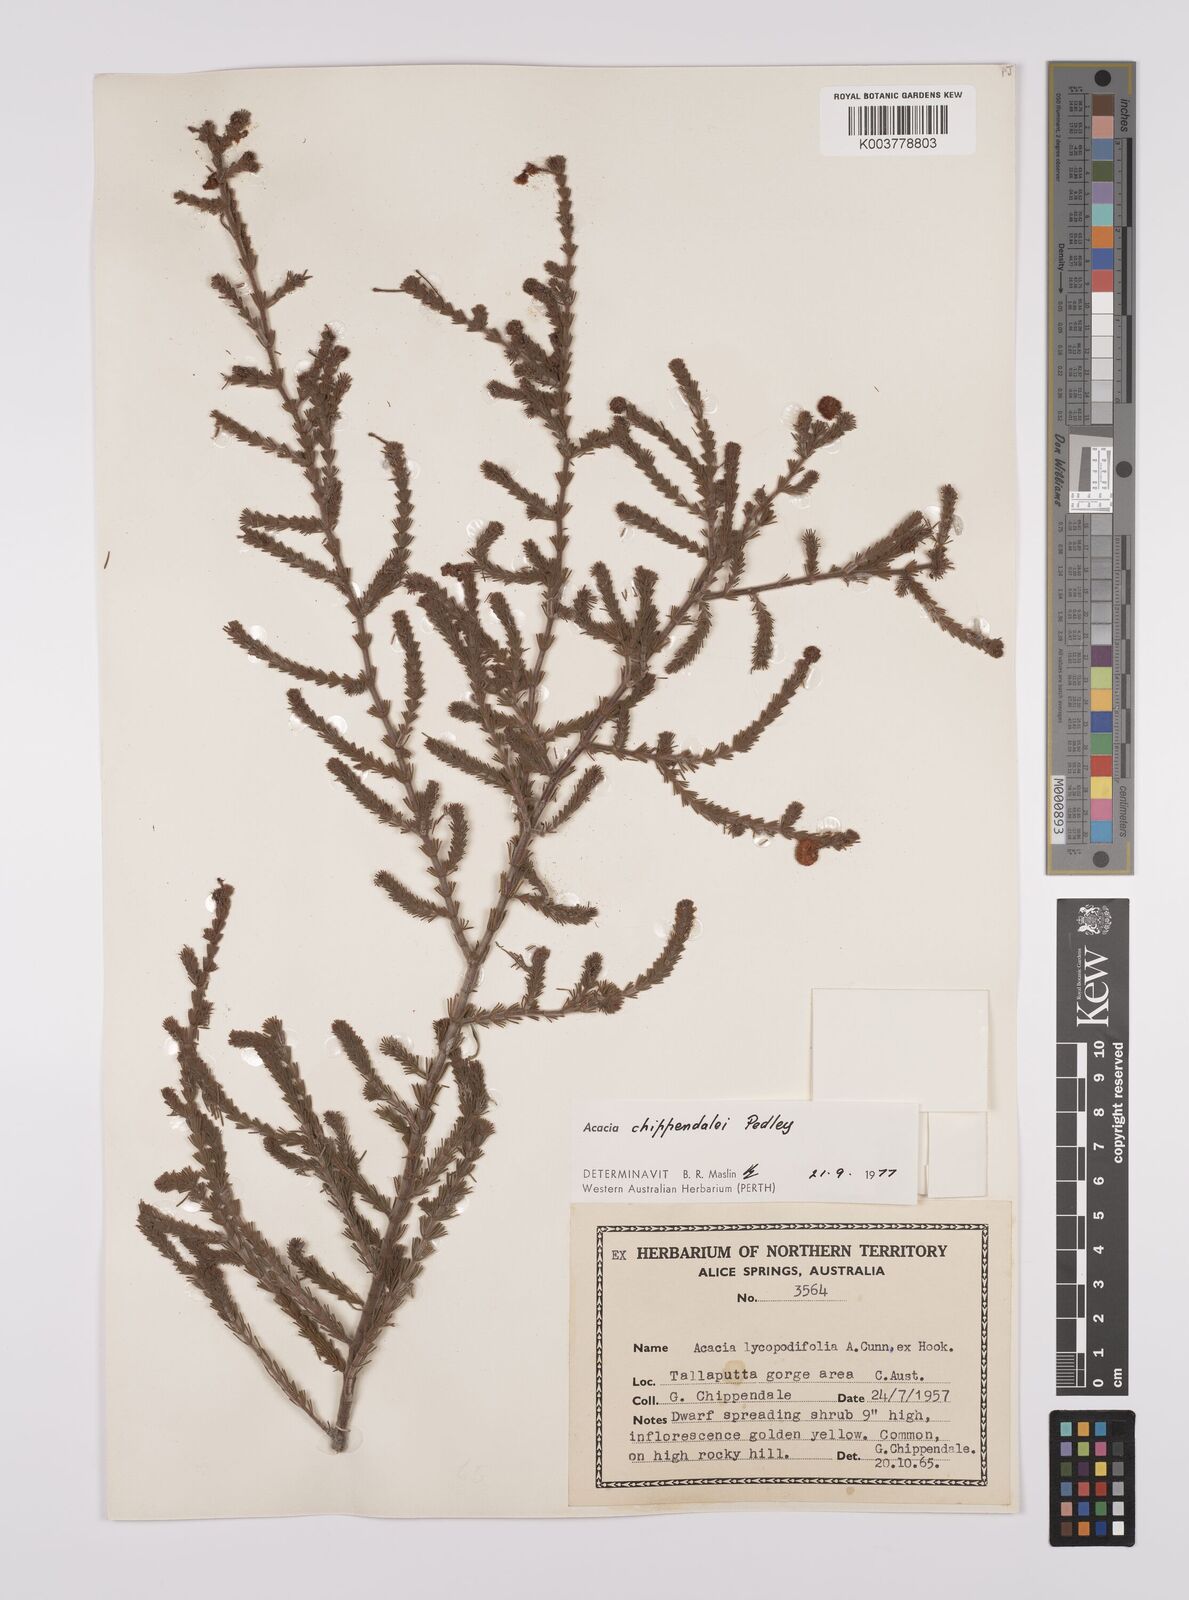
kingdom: Plantae
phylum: Tracheophyta
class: Magnoliopsida
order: Fabales
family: Fabaceae
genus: Acacia
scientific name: Acacia chippendalei
